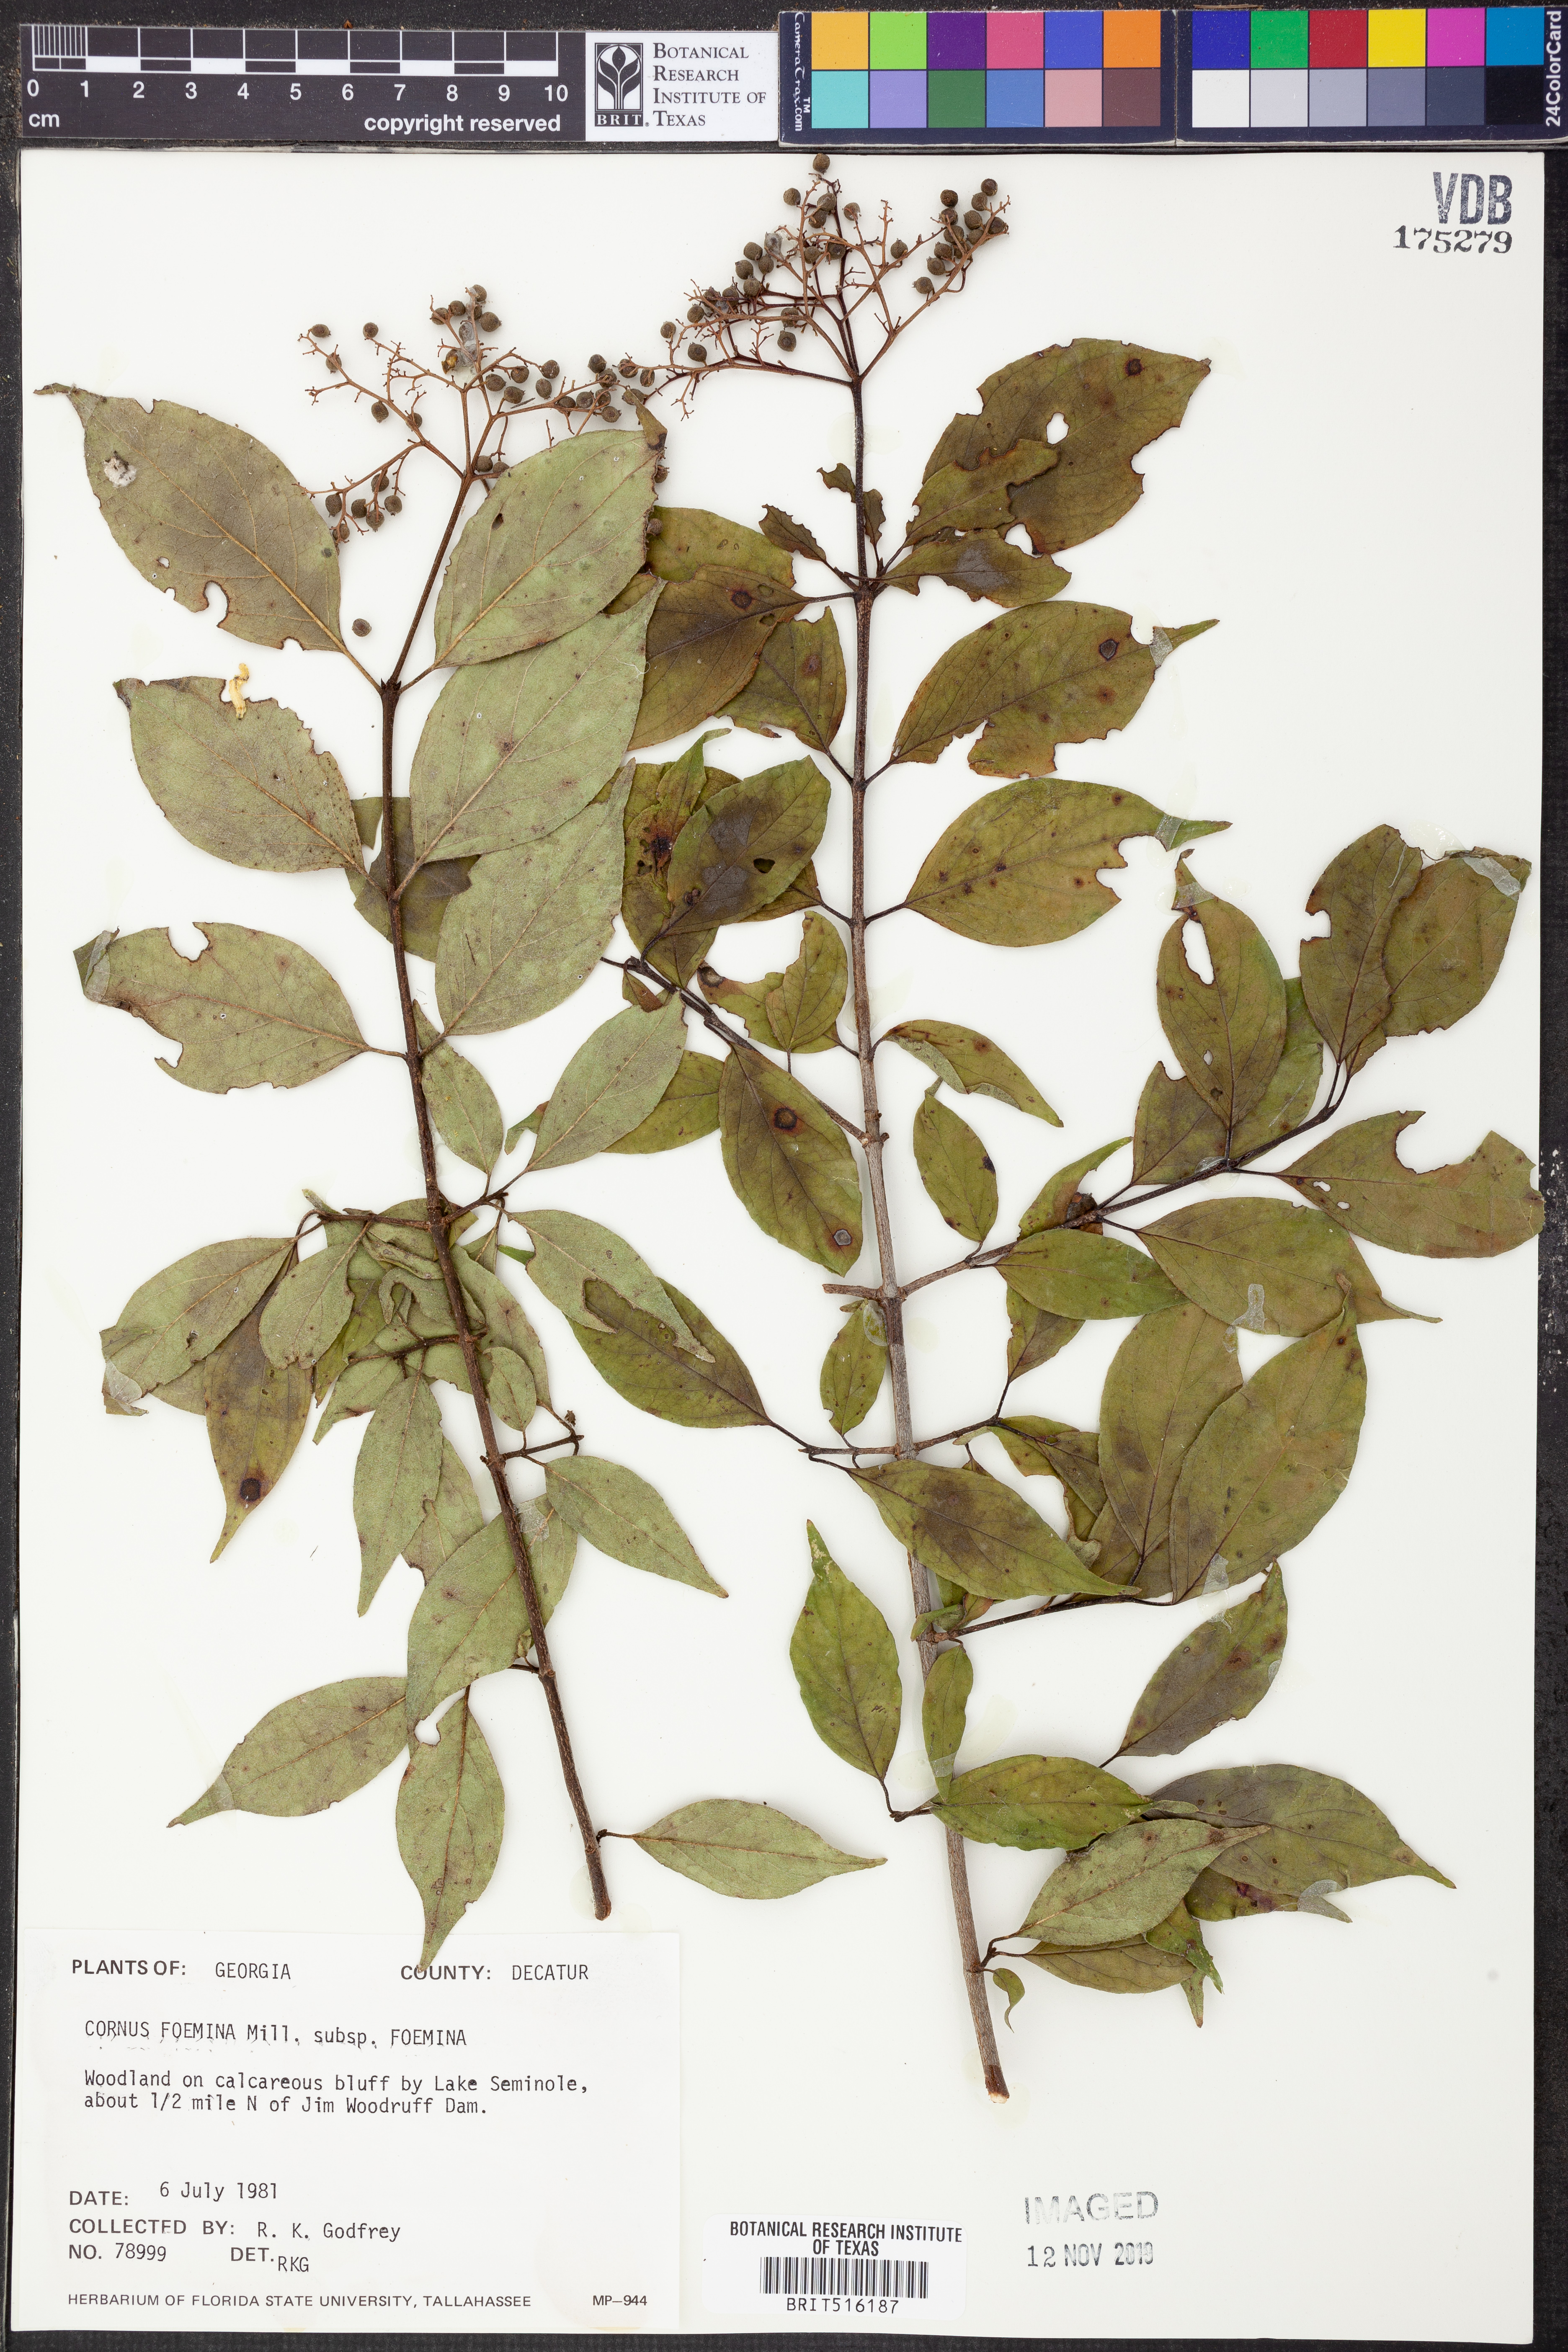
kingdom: Plantae
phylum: Tracheophyta
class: Magnoliopsida
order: Cornales
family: Cornaceae
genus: Cornus
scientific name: Cornus foemina
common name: Swamp dogwood
